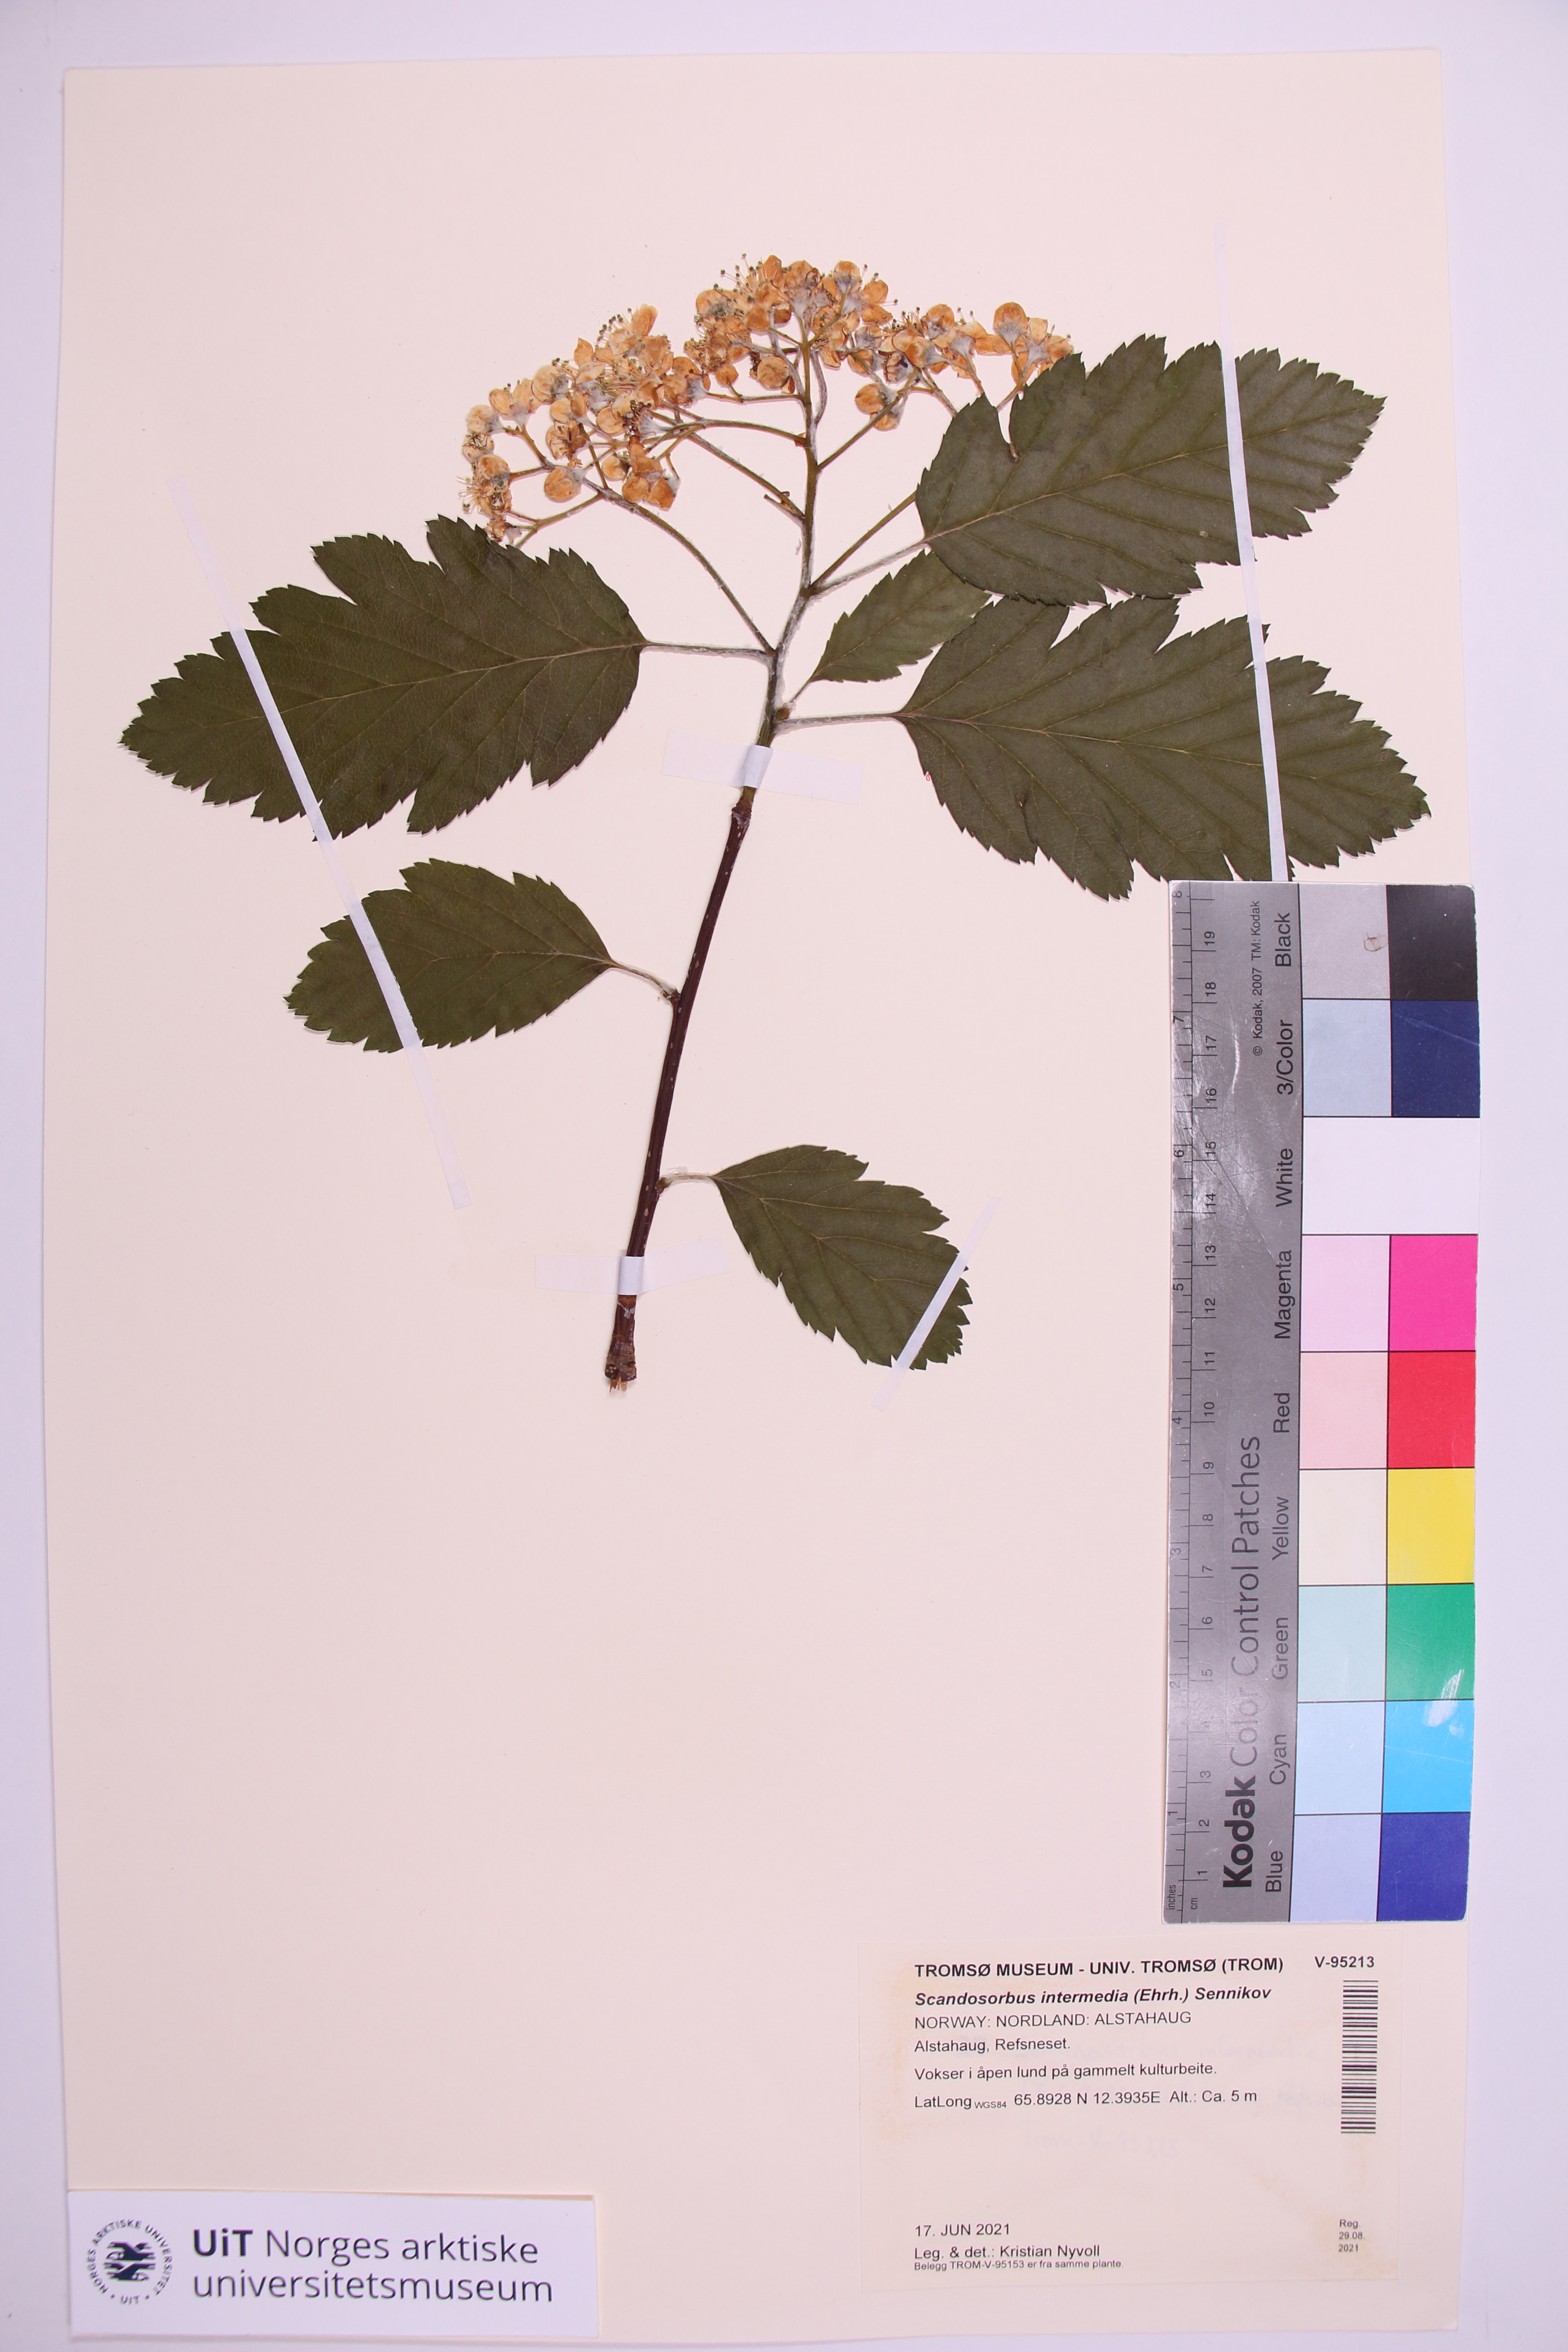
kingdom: Plantae
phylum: Tracheophyta
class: Magnoliopsida
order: Rosales
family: Rosaceae
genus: Scandosorbus
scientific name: Scandosorbus intermedia
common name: Swedish whitebeam
